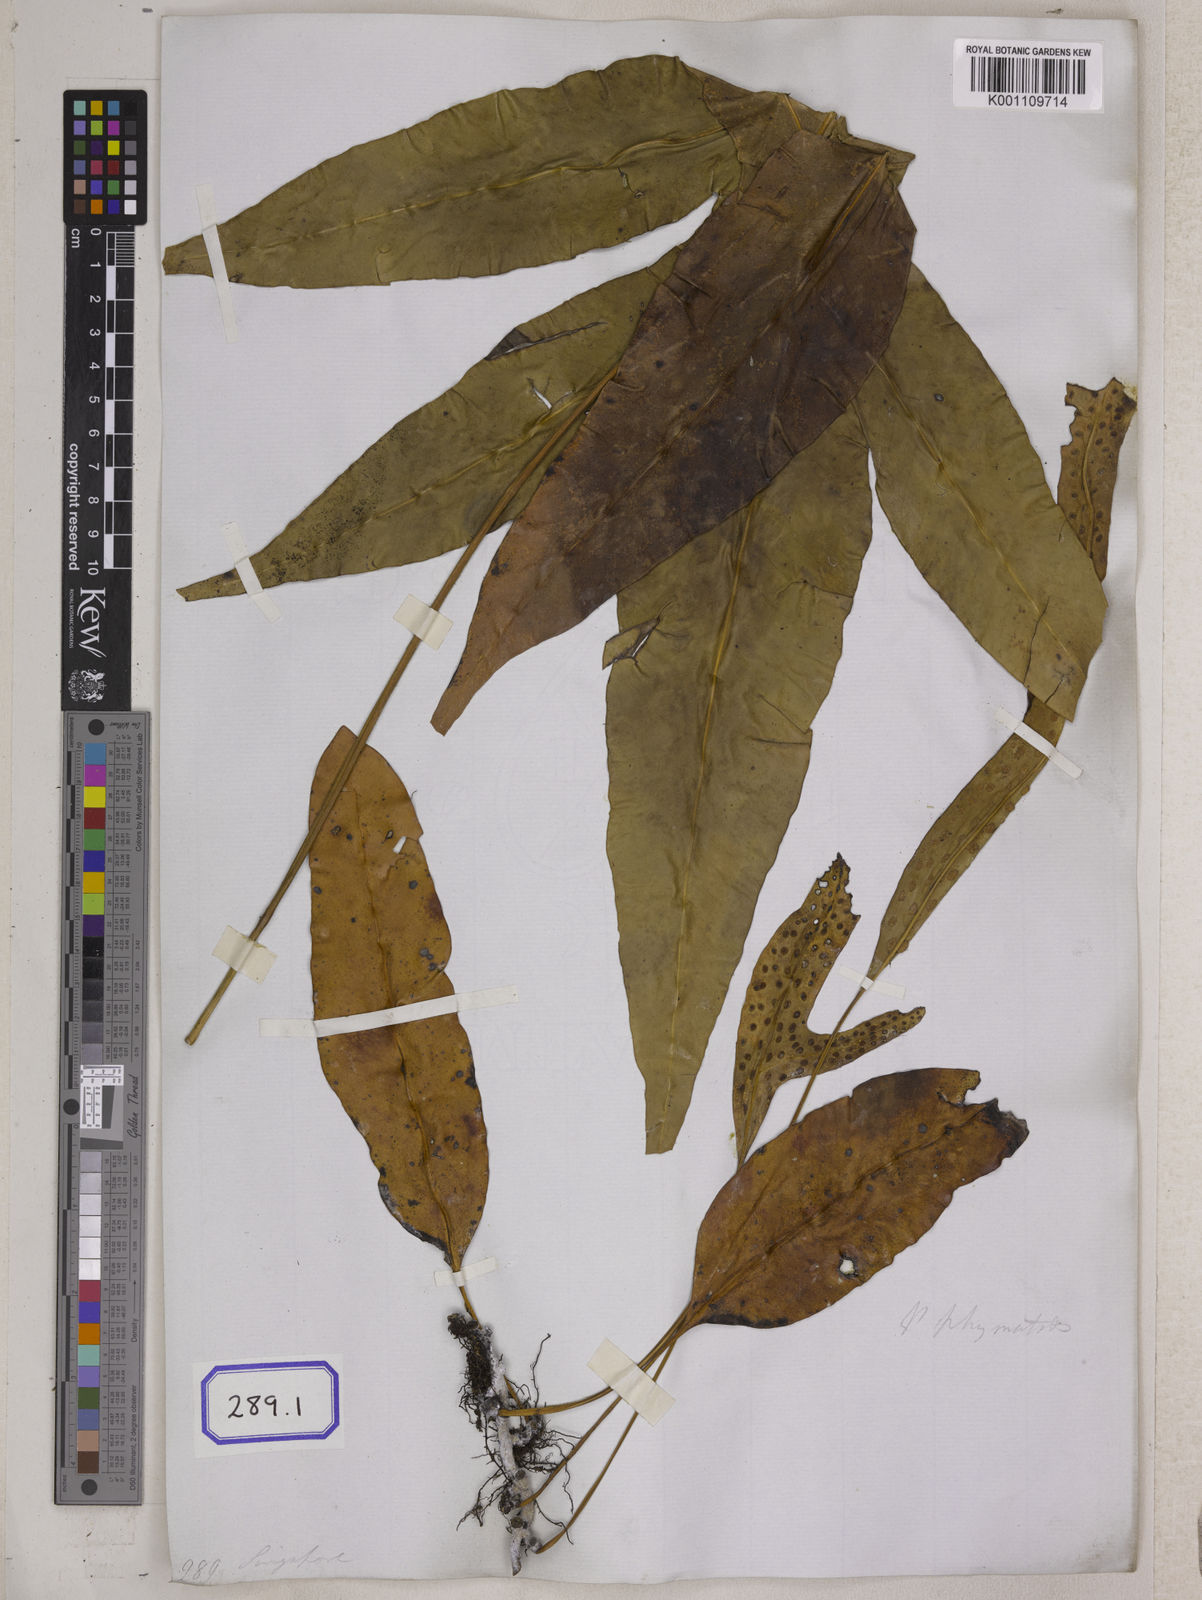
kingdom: Plantae
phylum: Tracheophyta
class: Polypodiopsida
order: Polypodiales
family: Polypodiaceae
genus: Microsorum
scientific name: Microsorum scolopendria
